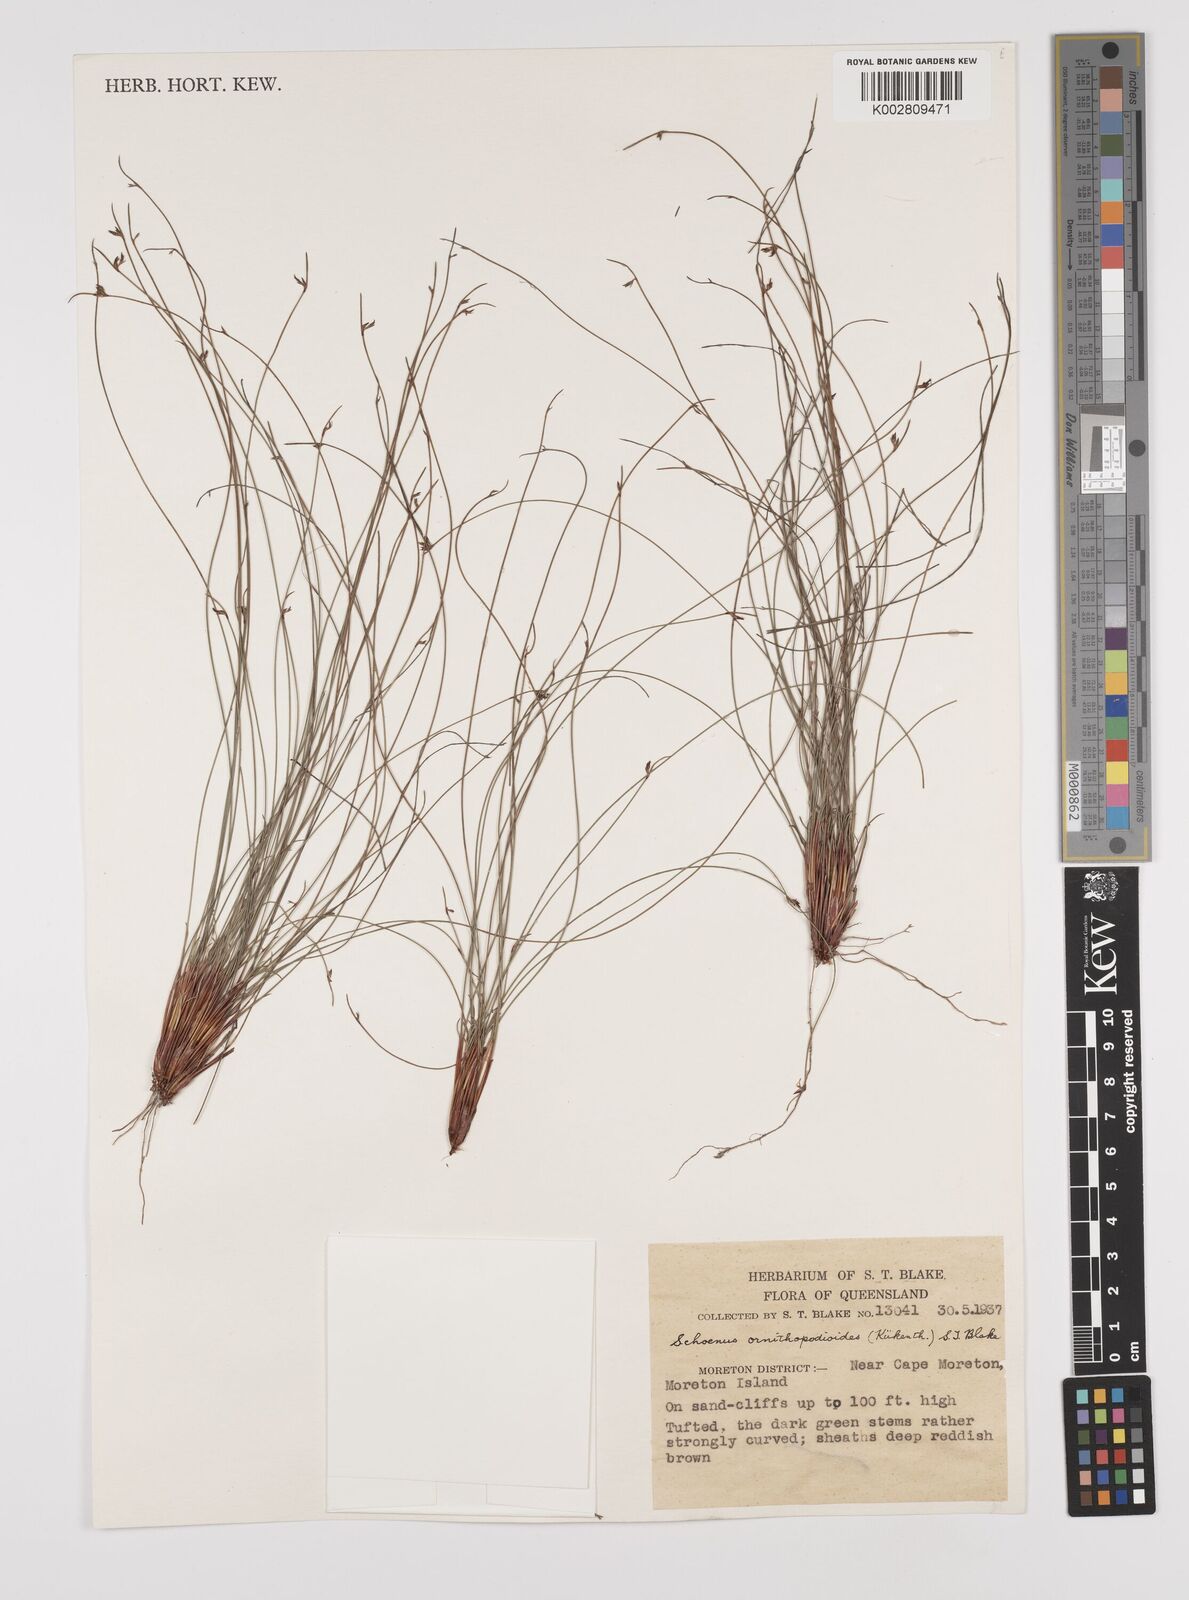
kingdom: Plantae
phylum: Tracheophyta
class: Liliopsida
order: Poales
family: Cyperaceae
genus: Schoenus
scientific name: Schoenus ornithopodioides
